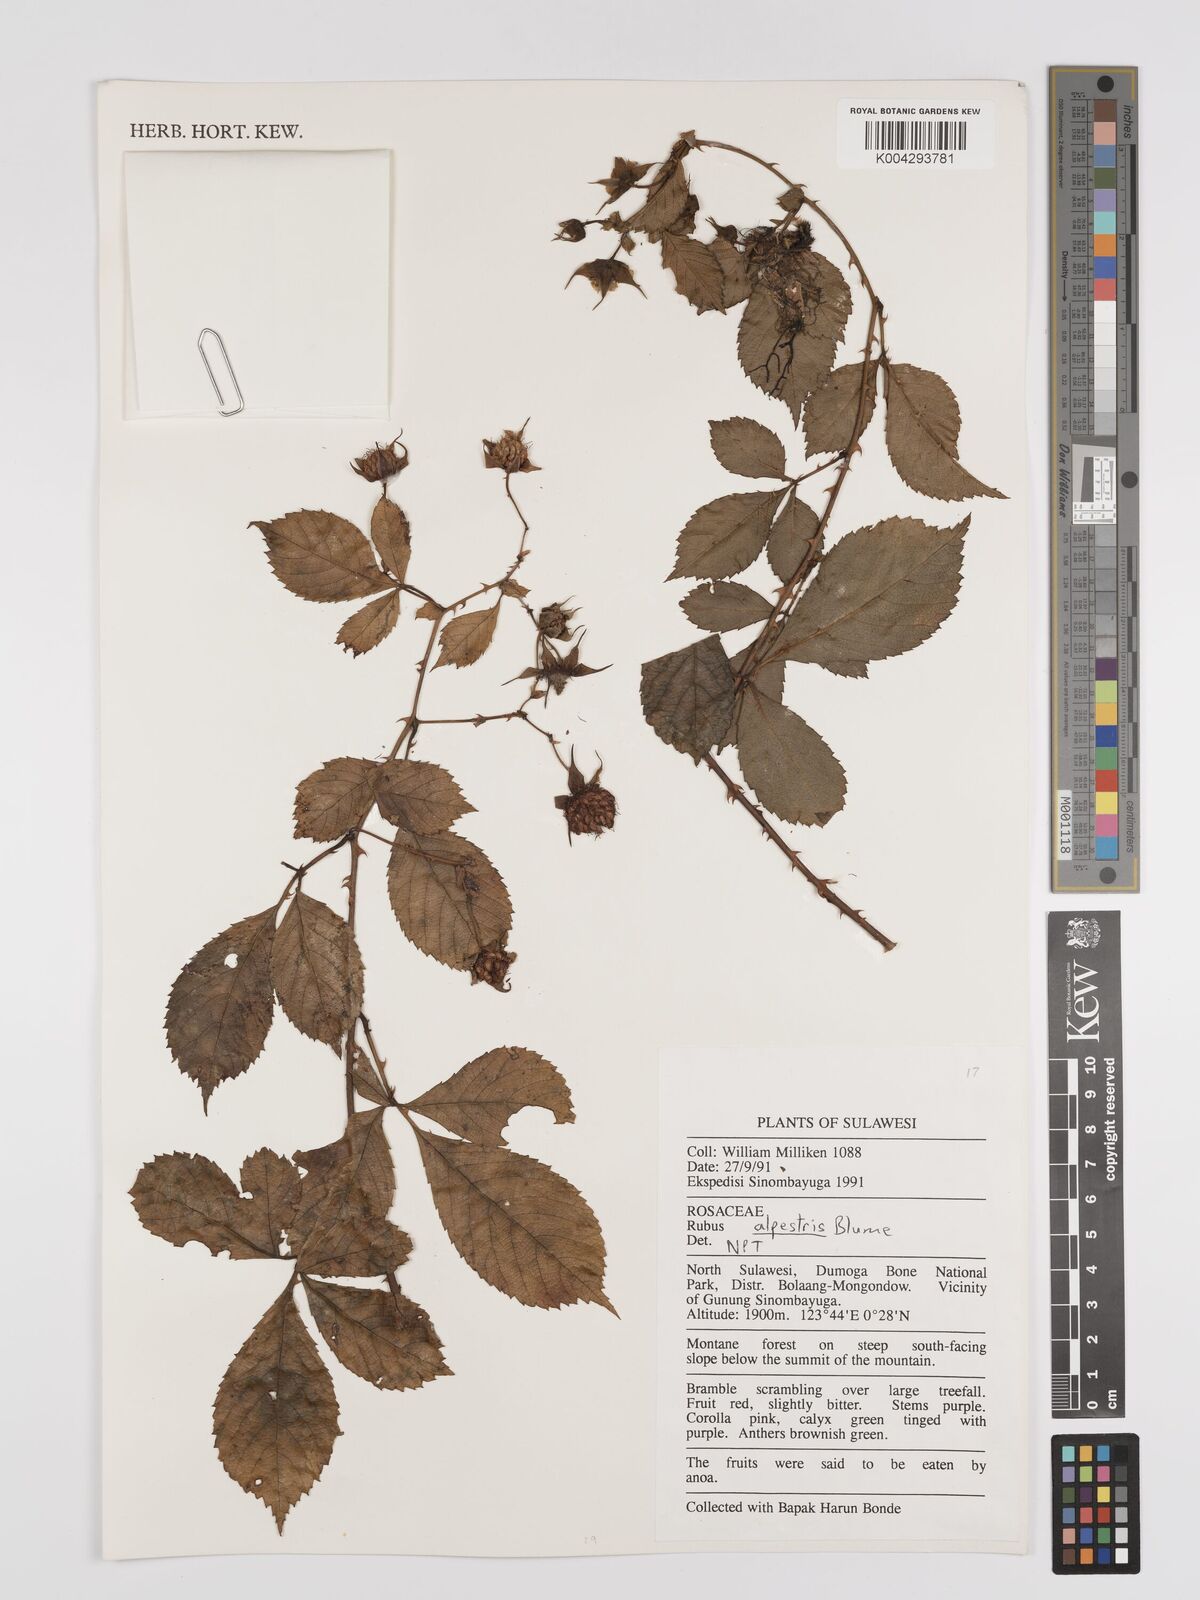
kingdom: Plantae
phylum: Tracheophyta
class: Magnoliopsida
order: Rosales
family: Rosaceae
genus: Rubus
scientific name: Rubus alpestris
